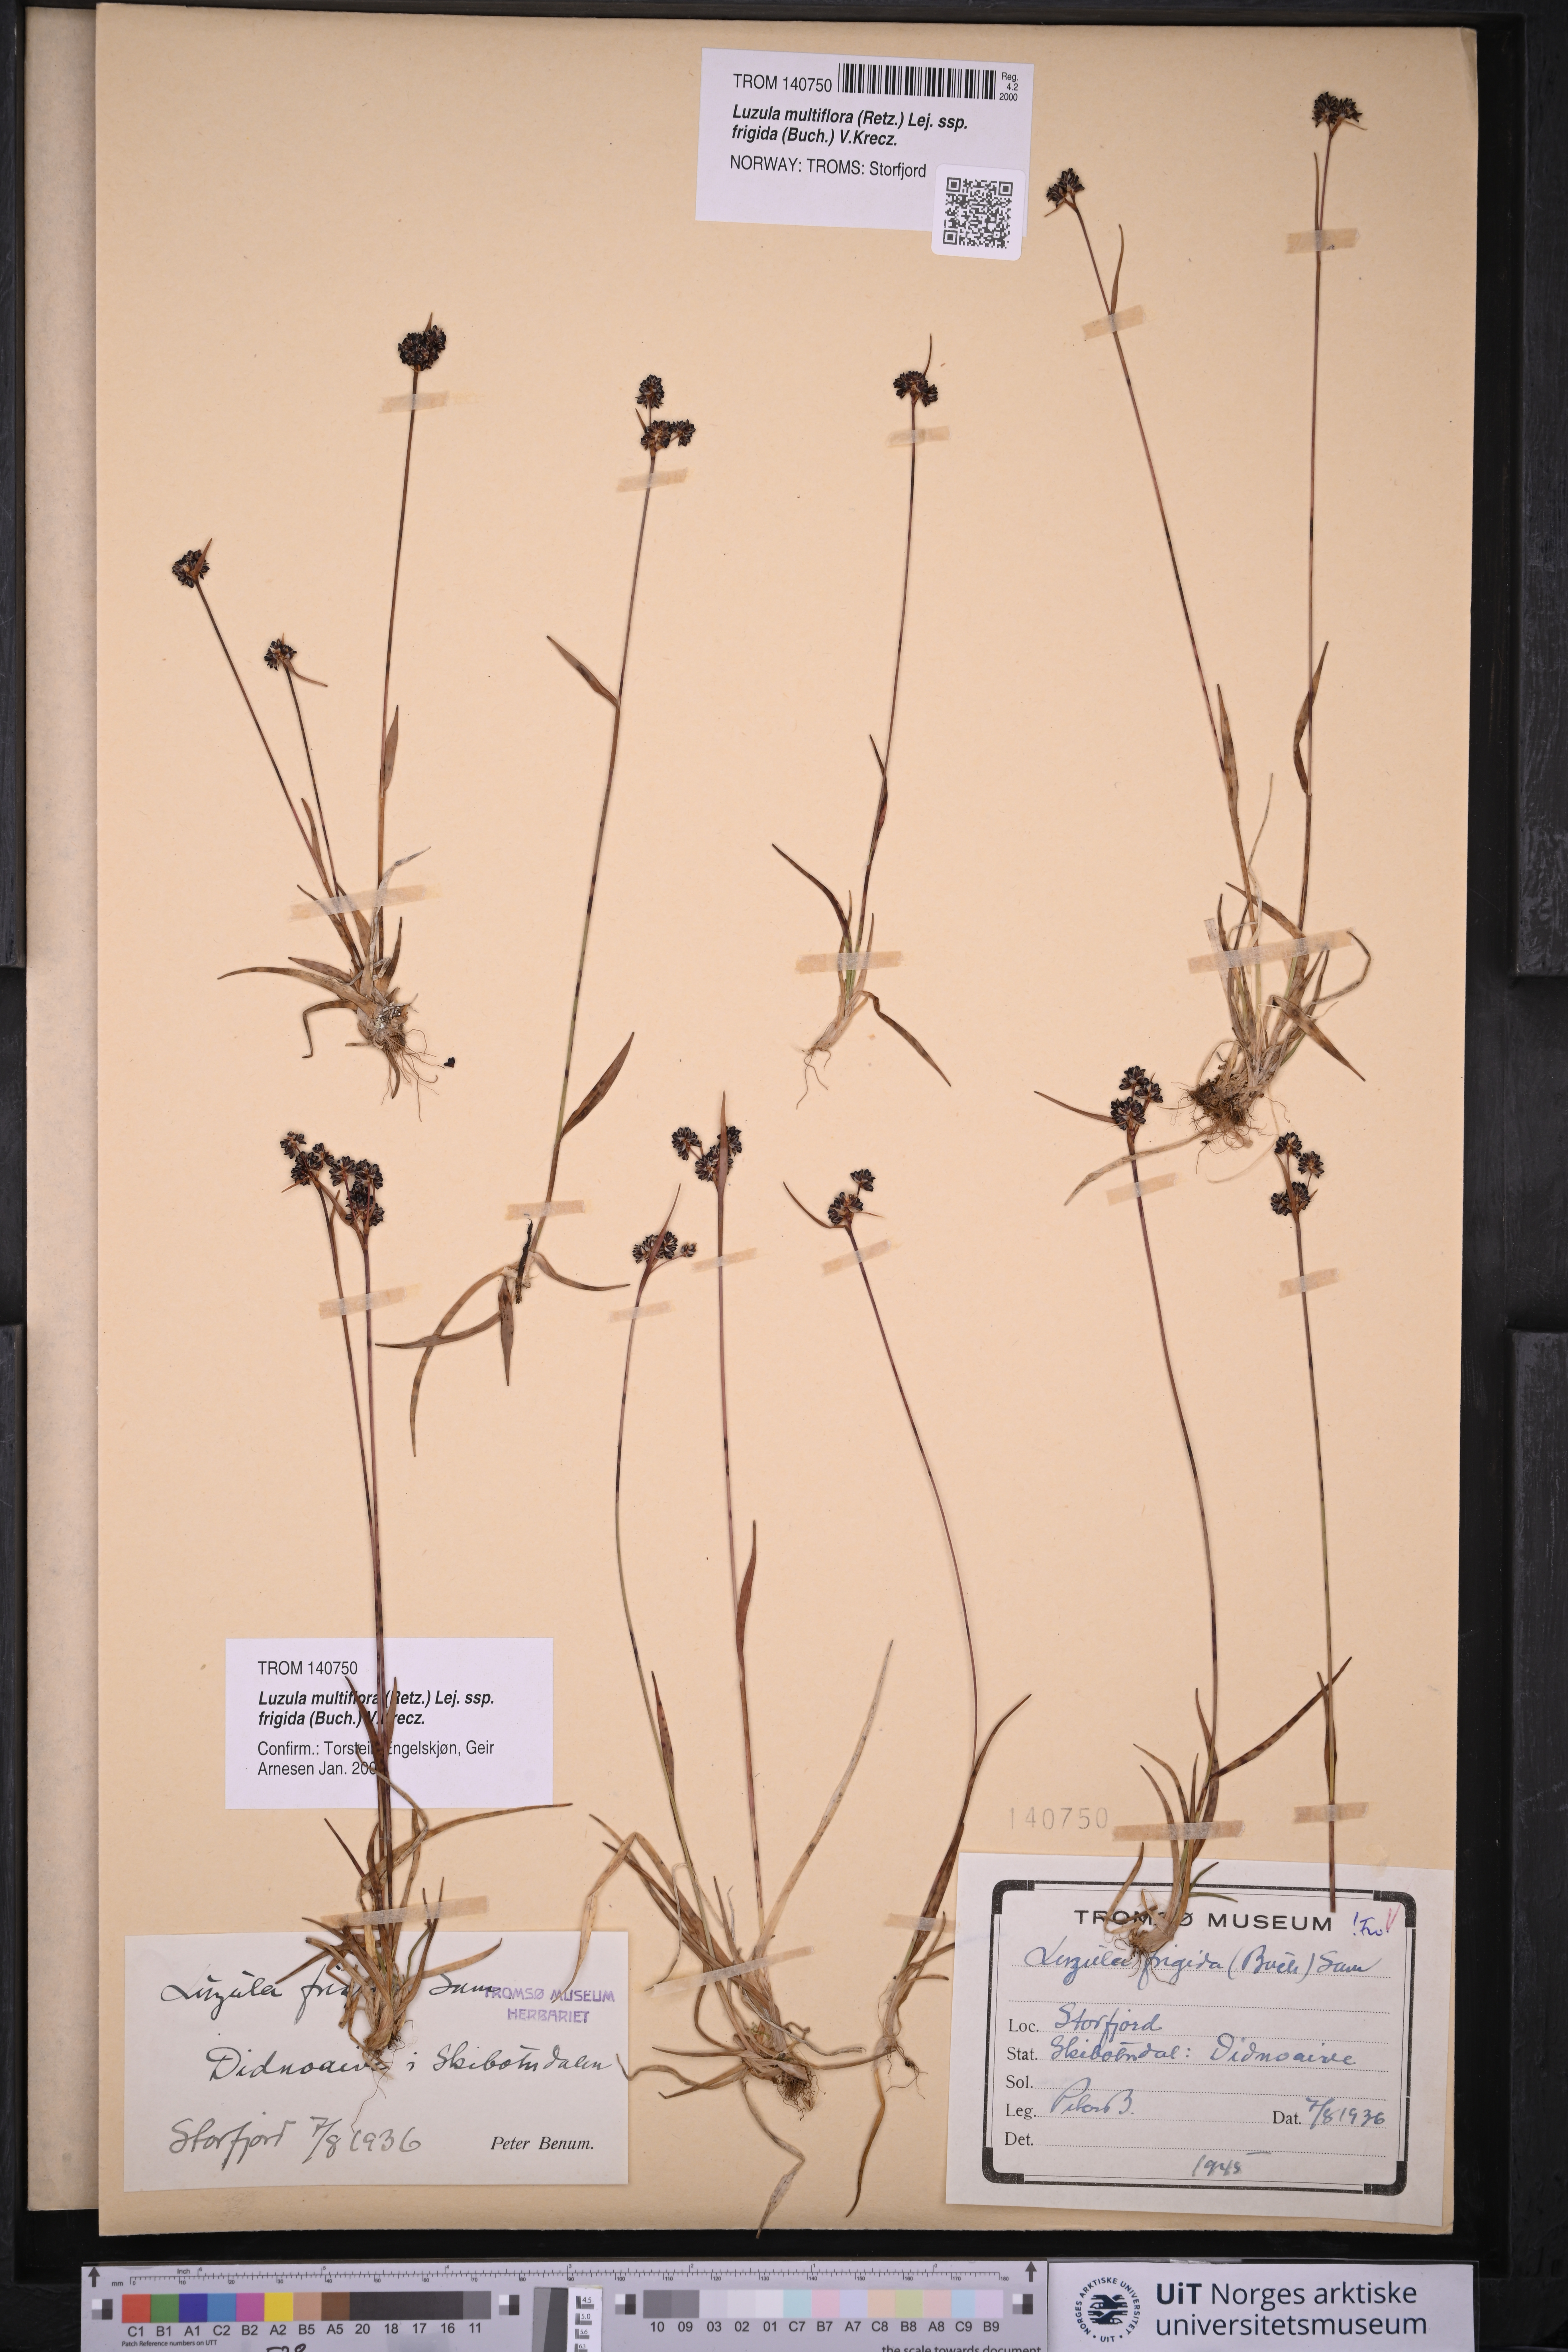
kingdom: Plantae
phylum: Tracheophyta
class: Liliopsida
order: Poales
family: Juncaceae
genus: Luzula
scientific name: Luzula multiflora
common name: Heath wood-rush
